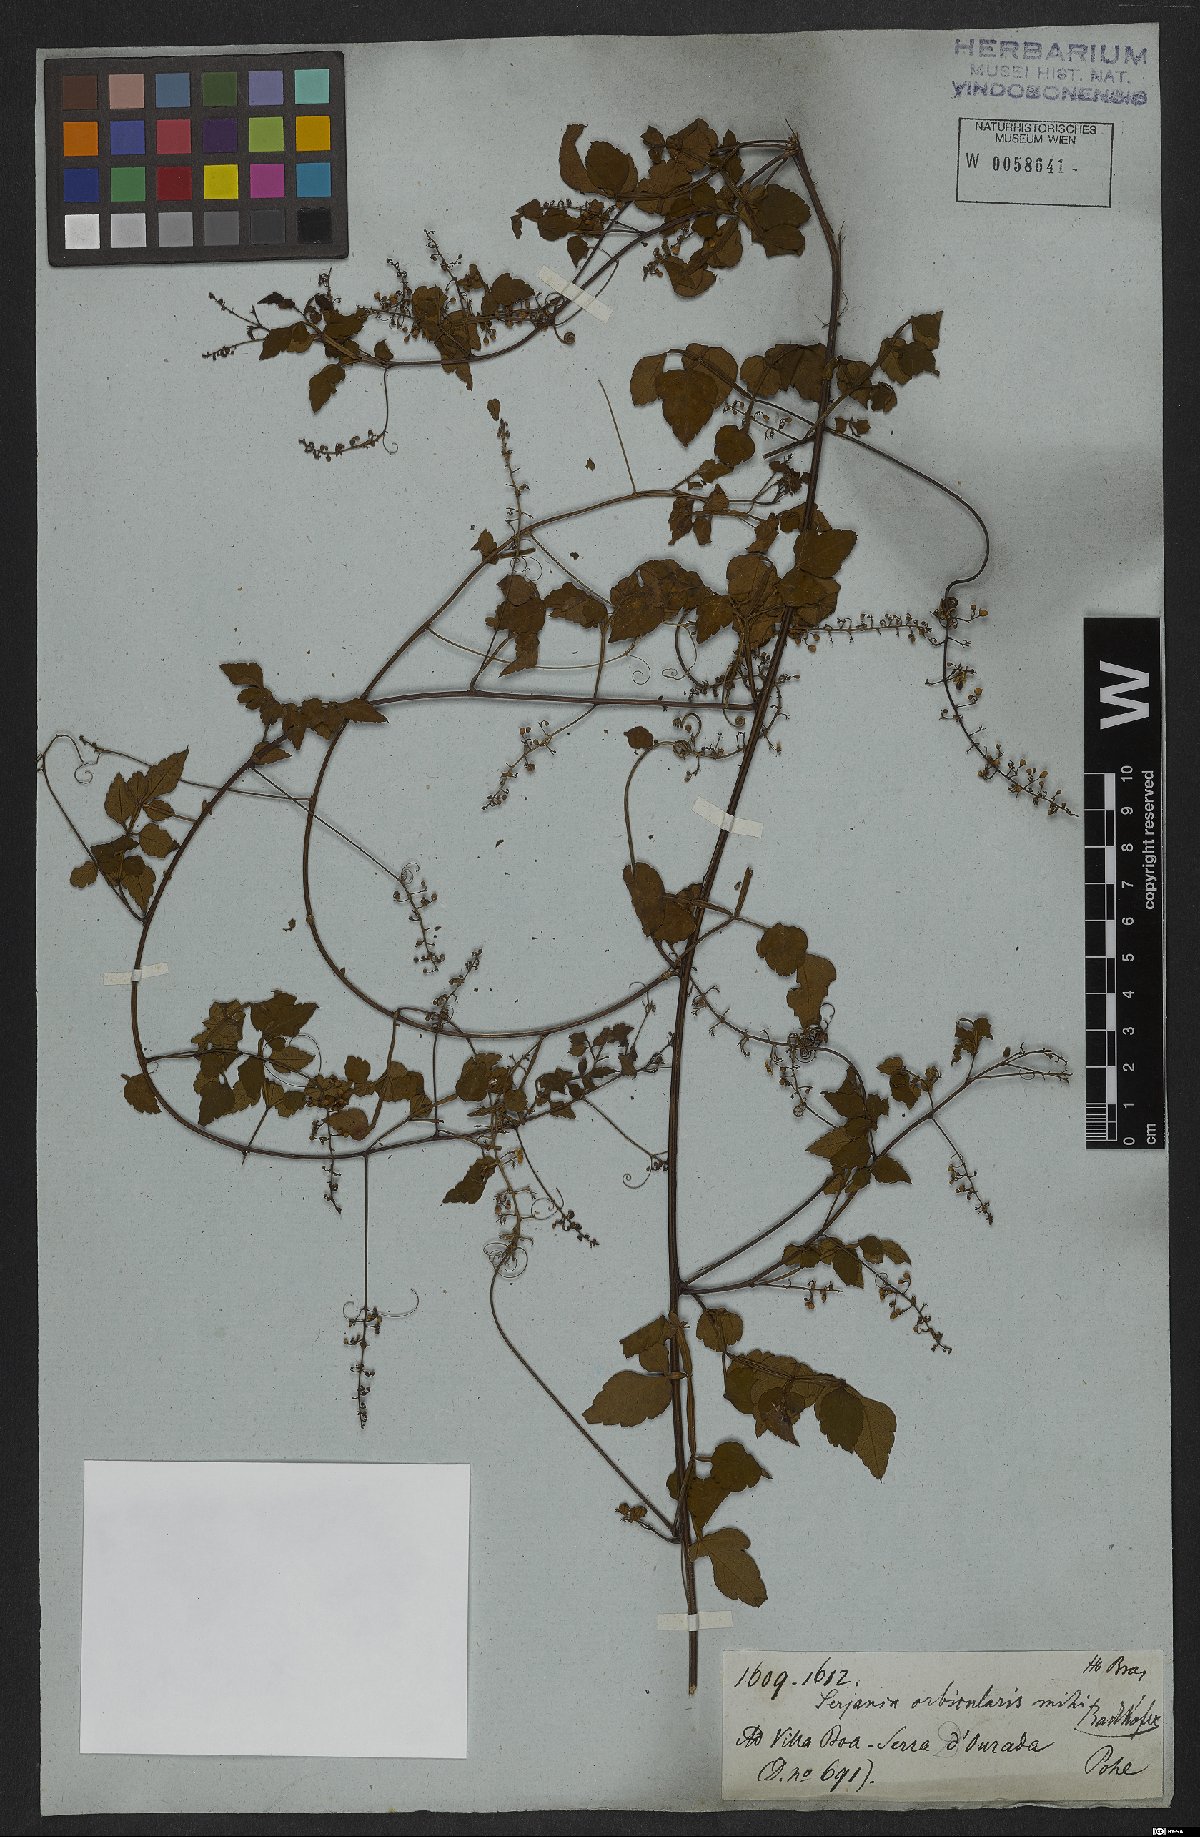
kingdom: Plantae
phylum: Tracheophyta
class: Magnoliopsida
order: Sapindales
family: Sapindaceae
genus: Serjania
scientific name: Serjania orbicularis
